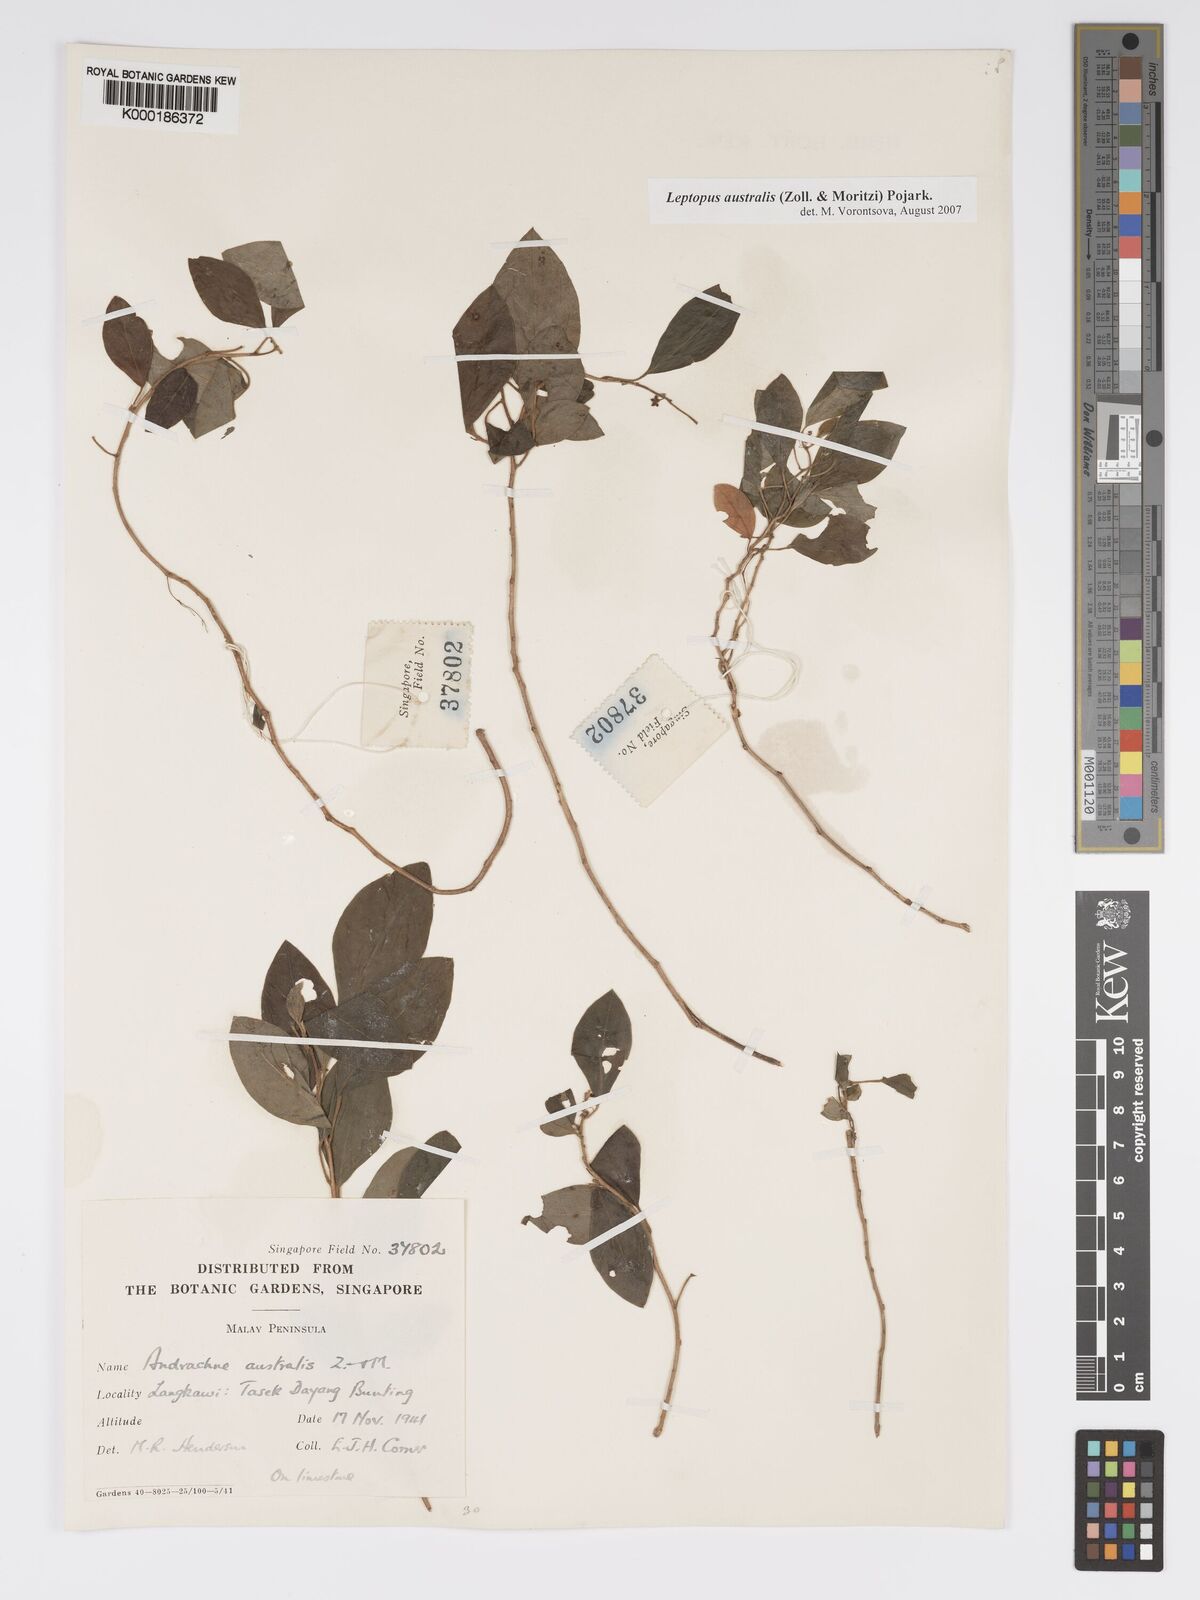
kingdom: Plantae
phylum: Tracheophyta
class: Magnoliopsida
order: Malpighiales
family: Phyllanthaceae
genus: Leptopus
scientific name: Leptopus australis
